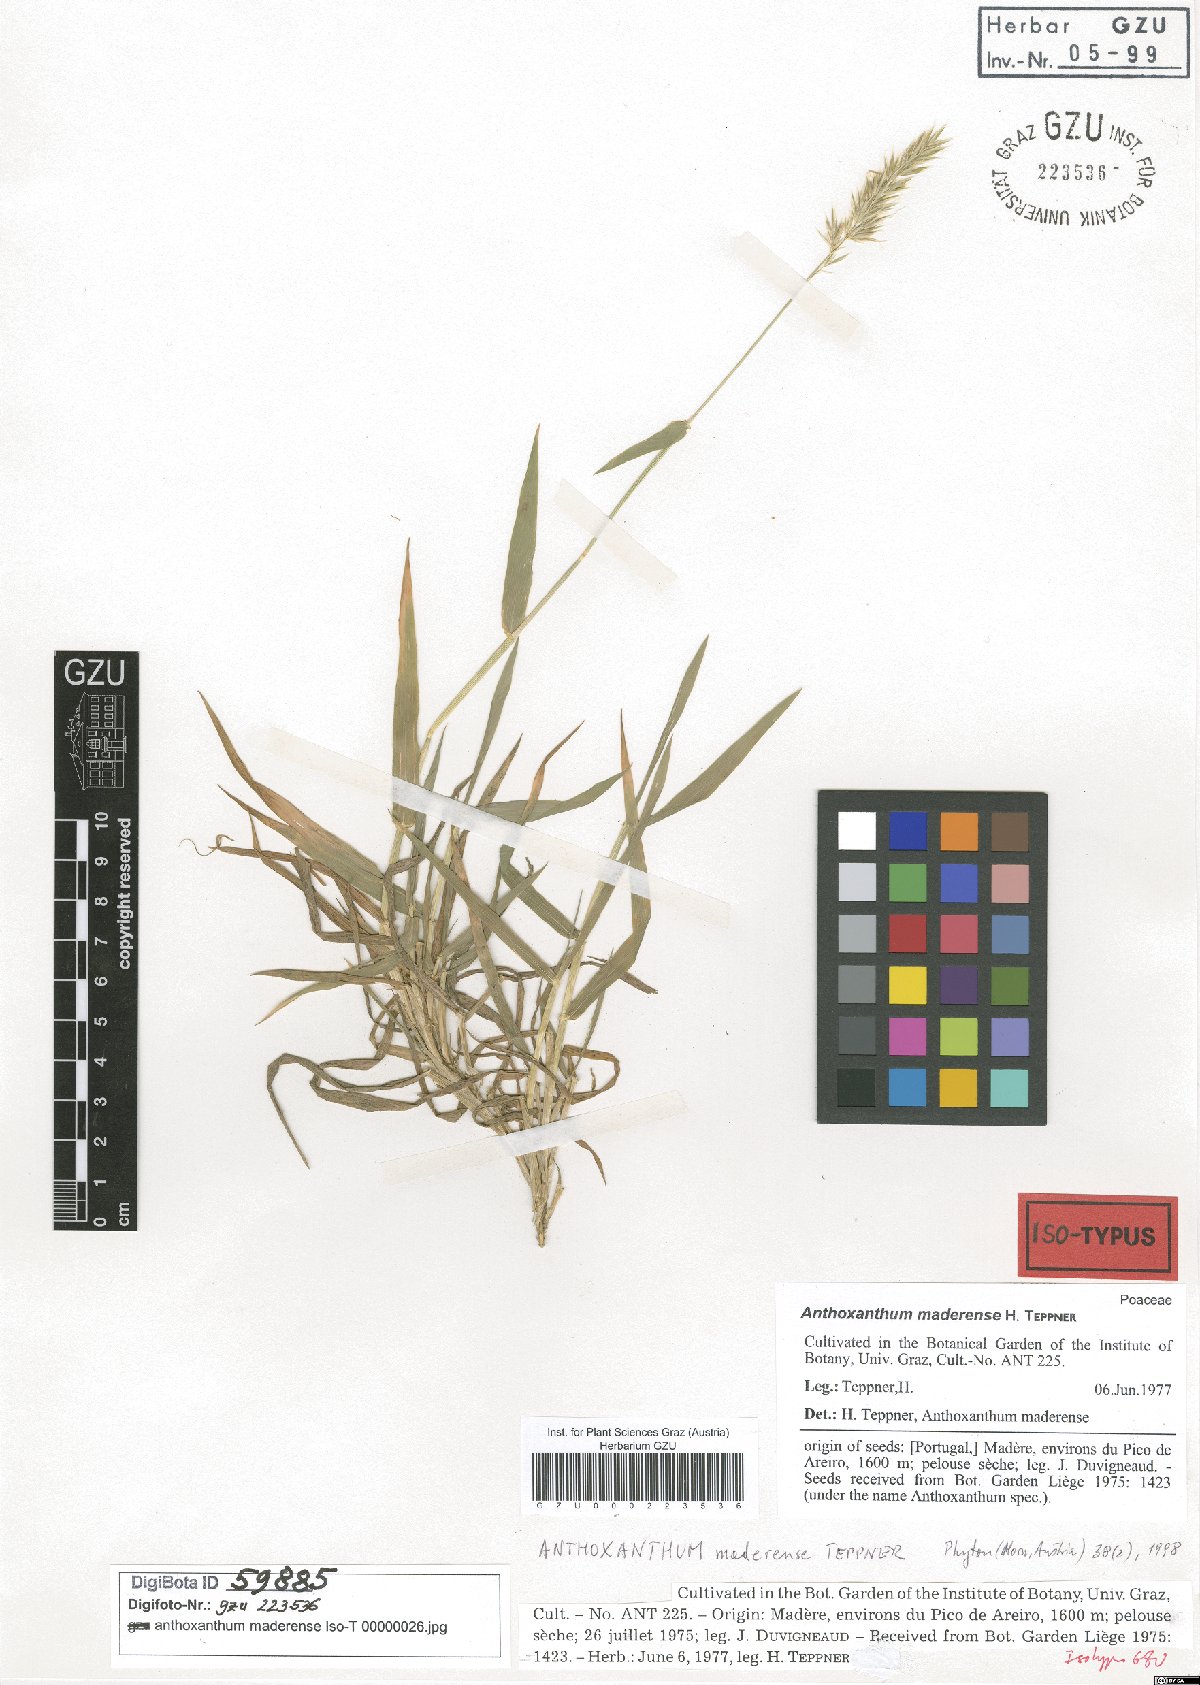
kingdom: Plantae
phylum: Tracheophyta
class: Liliopsida
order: Poales
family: Poaceae
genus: Anthoxanthum
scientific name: Anthoxanthum maderense
